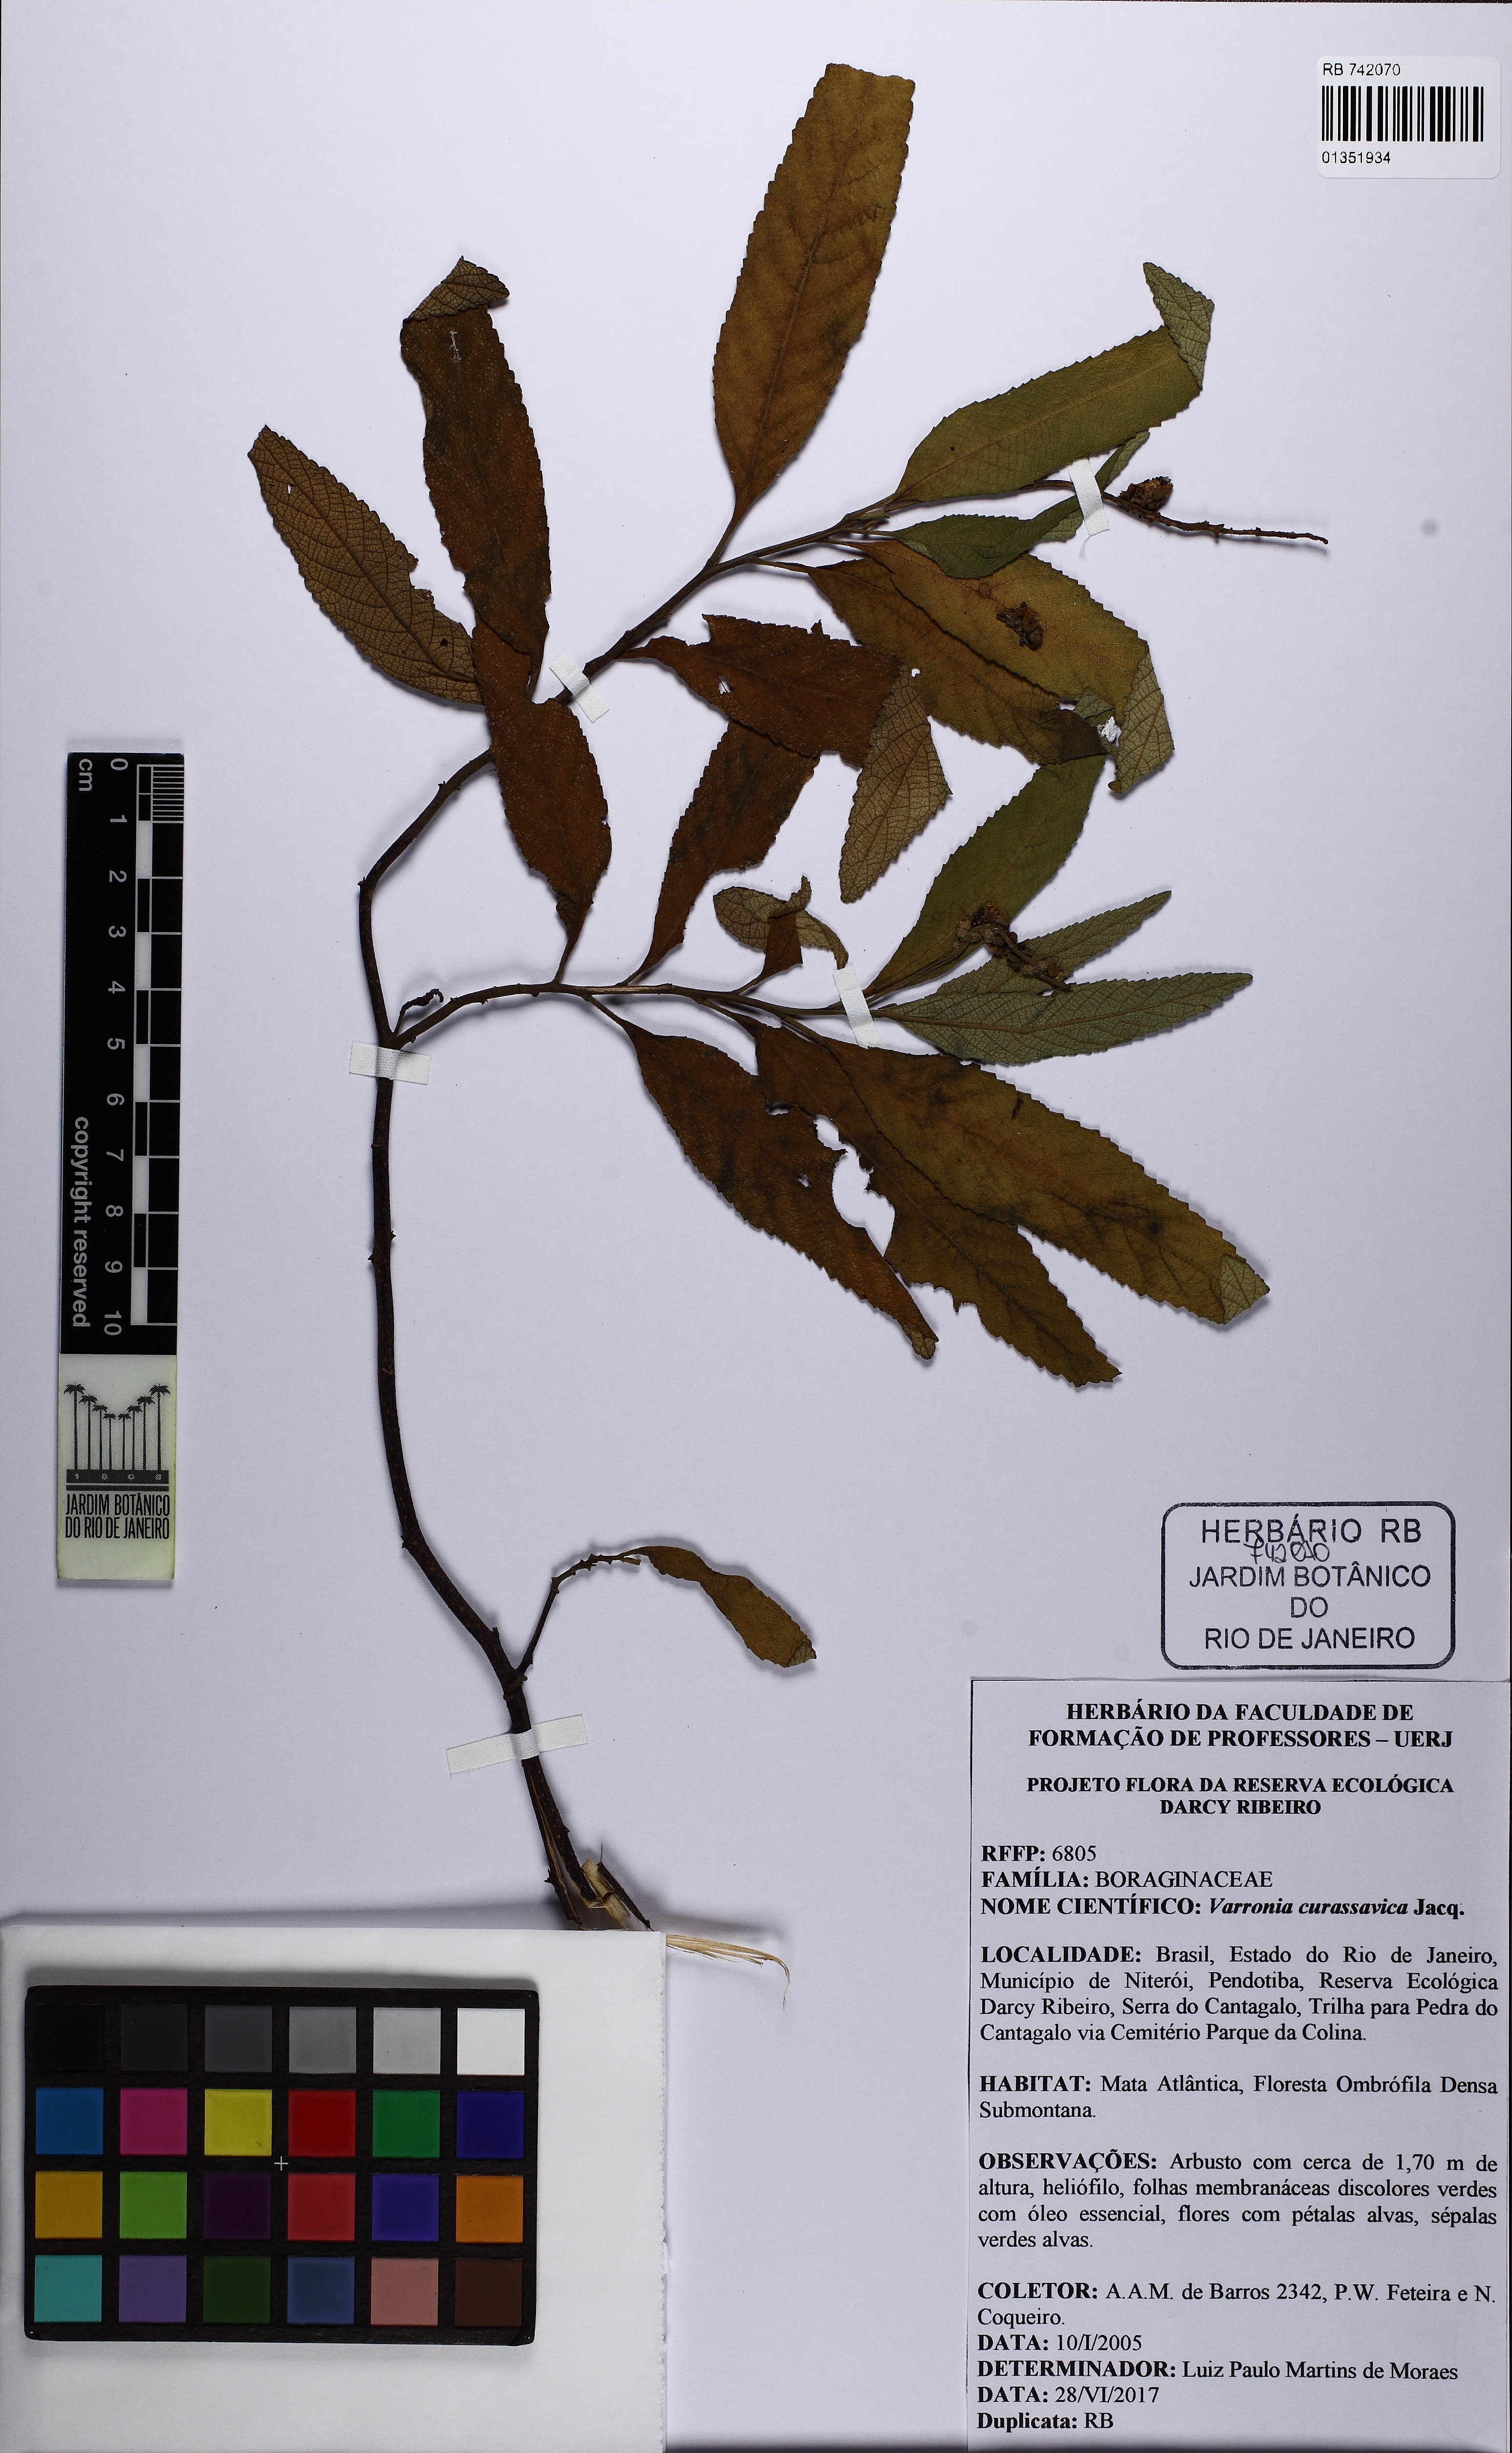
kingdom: Plantae
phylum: Tracheophyta
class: Magnoliopsida
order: Boraginales
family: Cordiaceae
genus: Varronia
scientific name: Varronia curassavica
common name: Black sage
